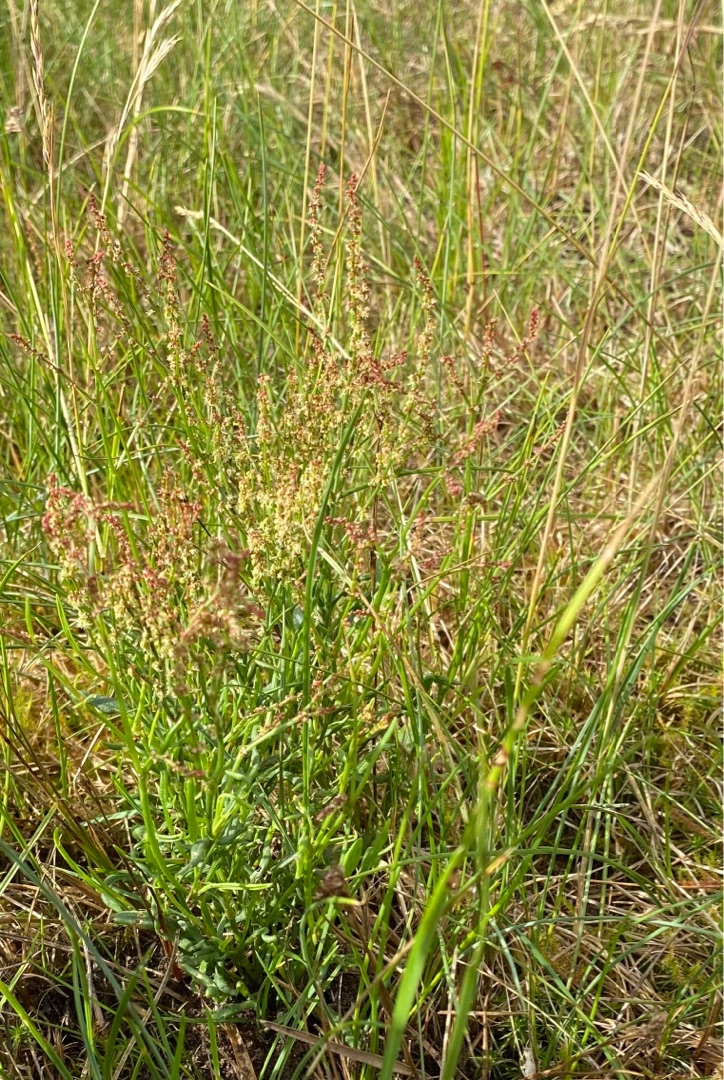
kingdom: Plantae
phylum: Tracheophyta
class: Magnoliopsida
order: Caryophyllales
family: Polygonaceae
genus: Rumex
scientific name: Rumex acetosella
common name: Rødknæ
